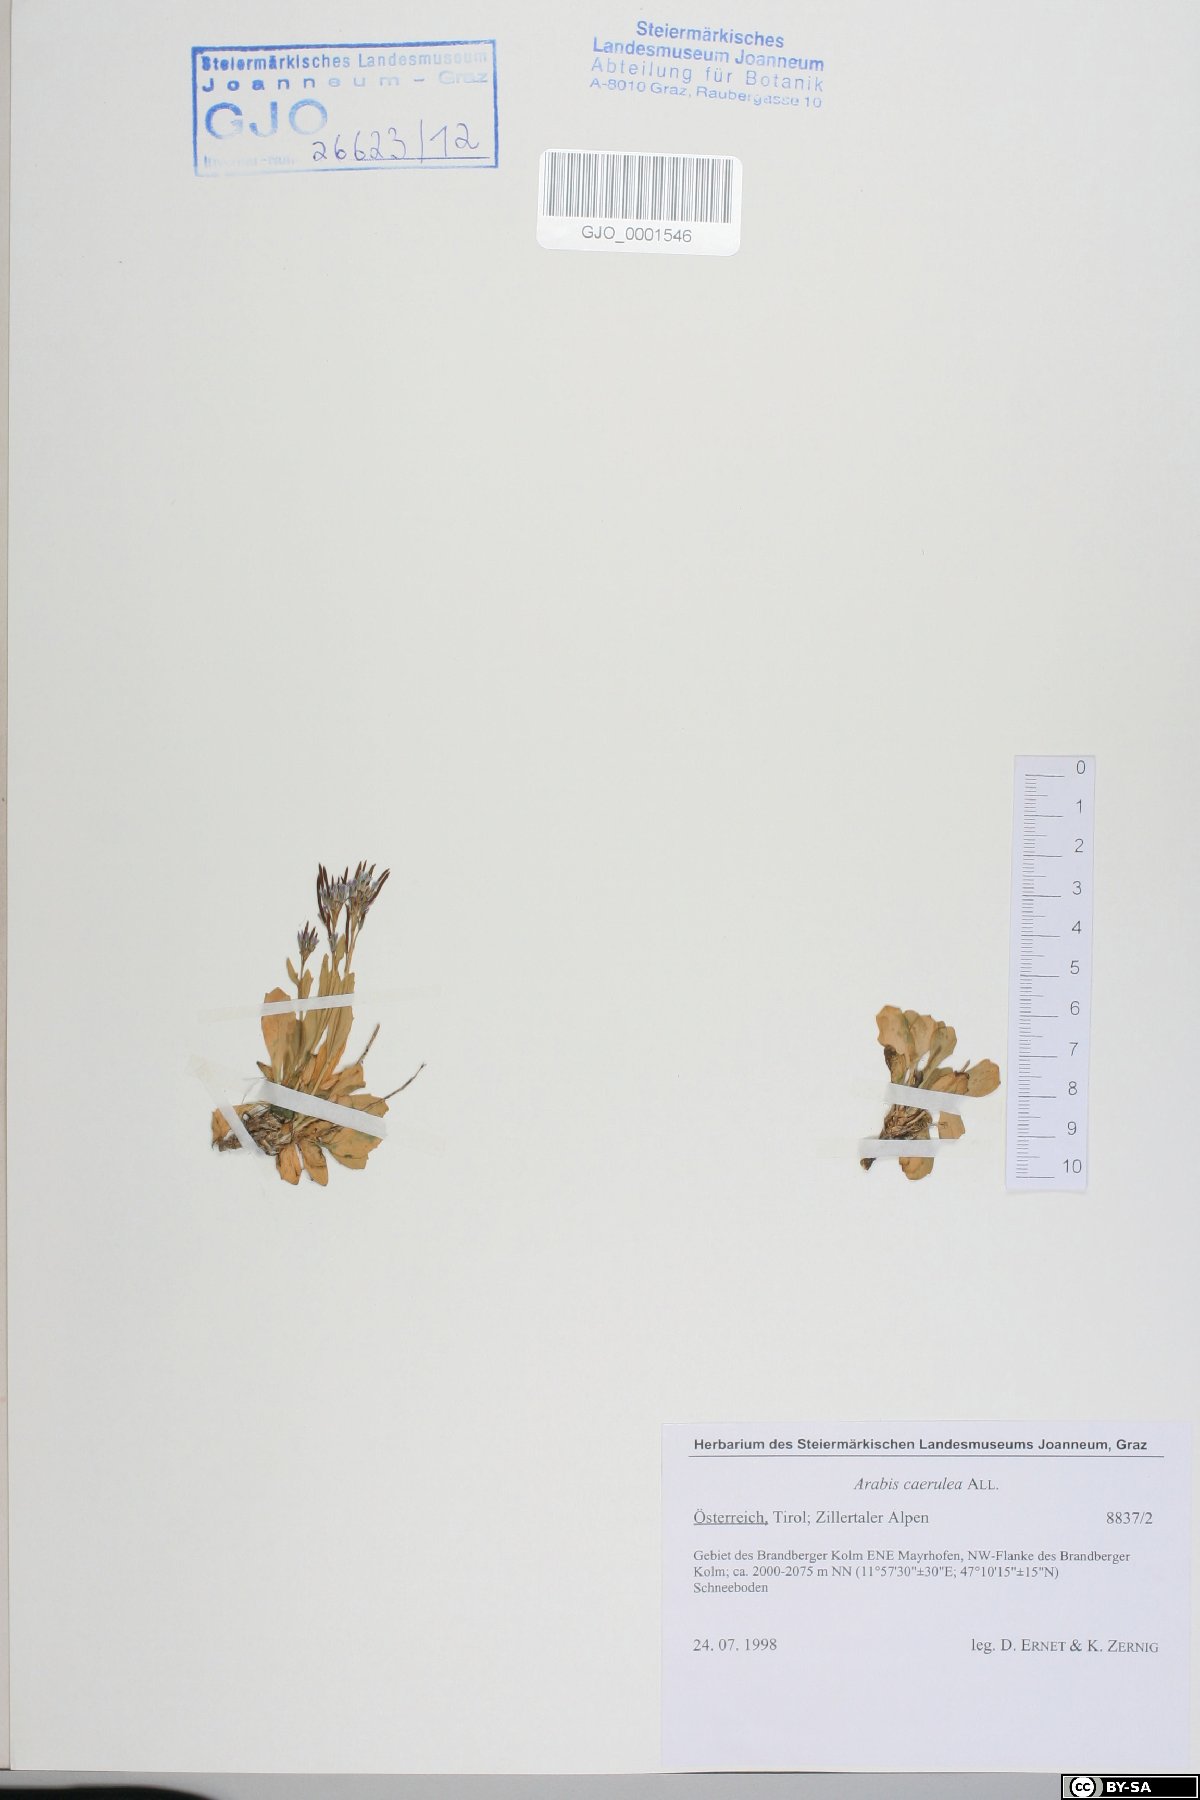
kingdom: Plantae
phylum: Tracheophyta
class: Magnoliopsida
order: Brassicales
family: Brassicaceae
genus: Arabis
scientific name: Arabis caerulea
